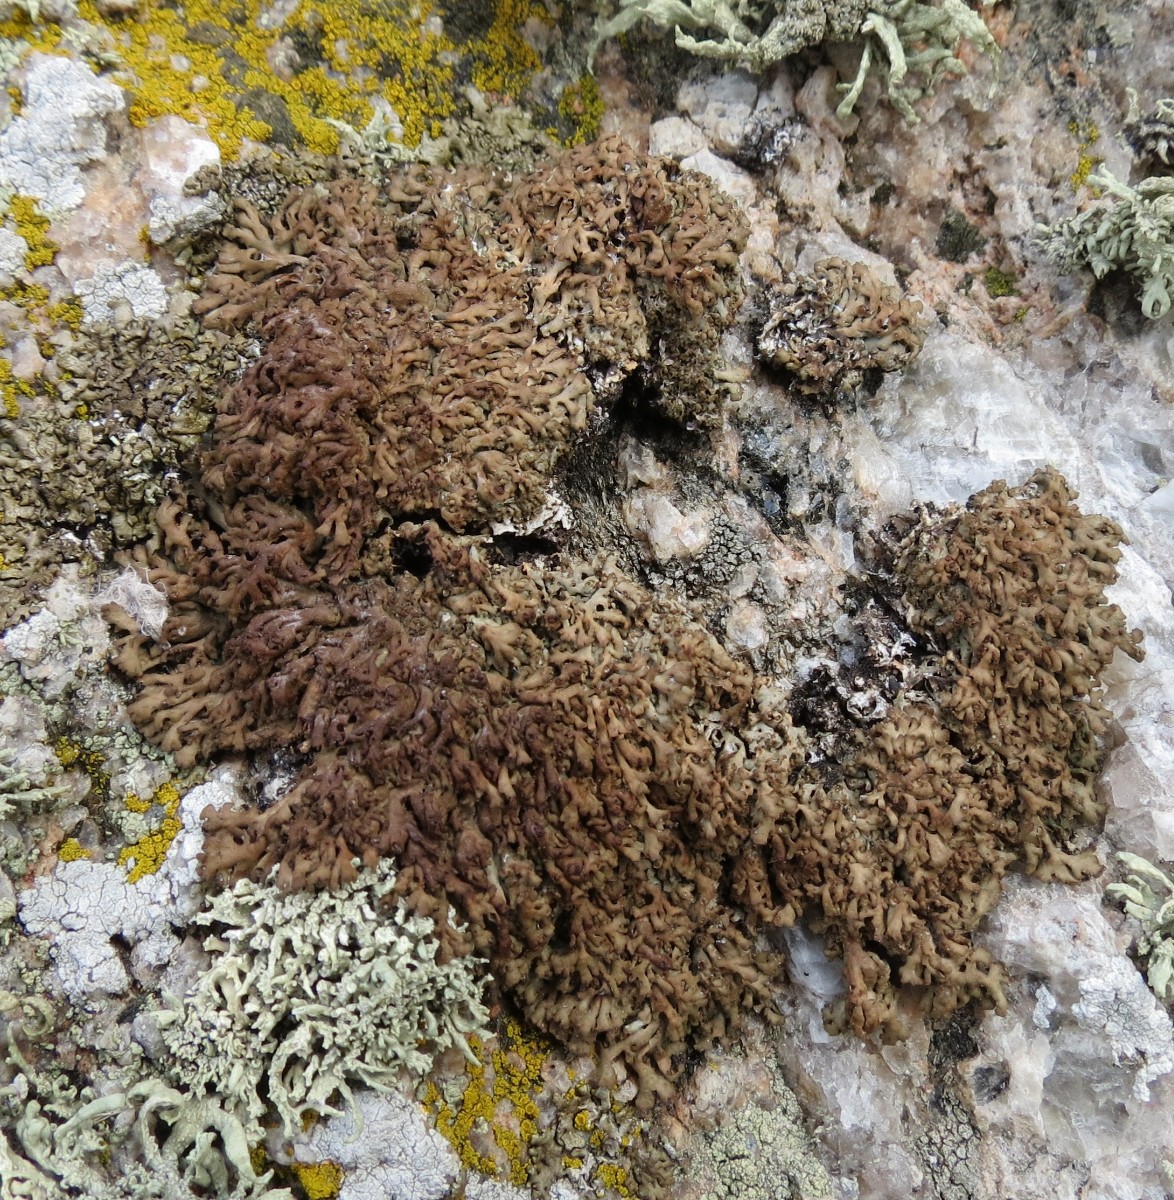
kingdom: Fungi
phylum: Ascomycota
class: Lecanoromycetes
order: Caliciales
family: Physciaceae
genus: Kurokawia
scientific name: Kurokawia runcinata
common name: brun frynselav
